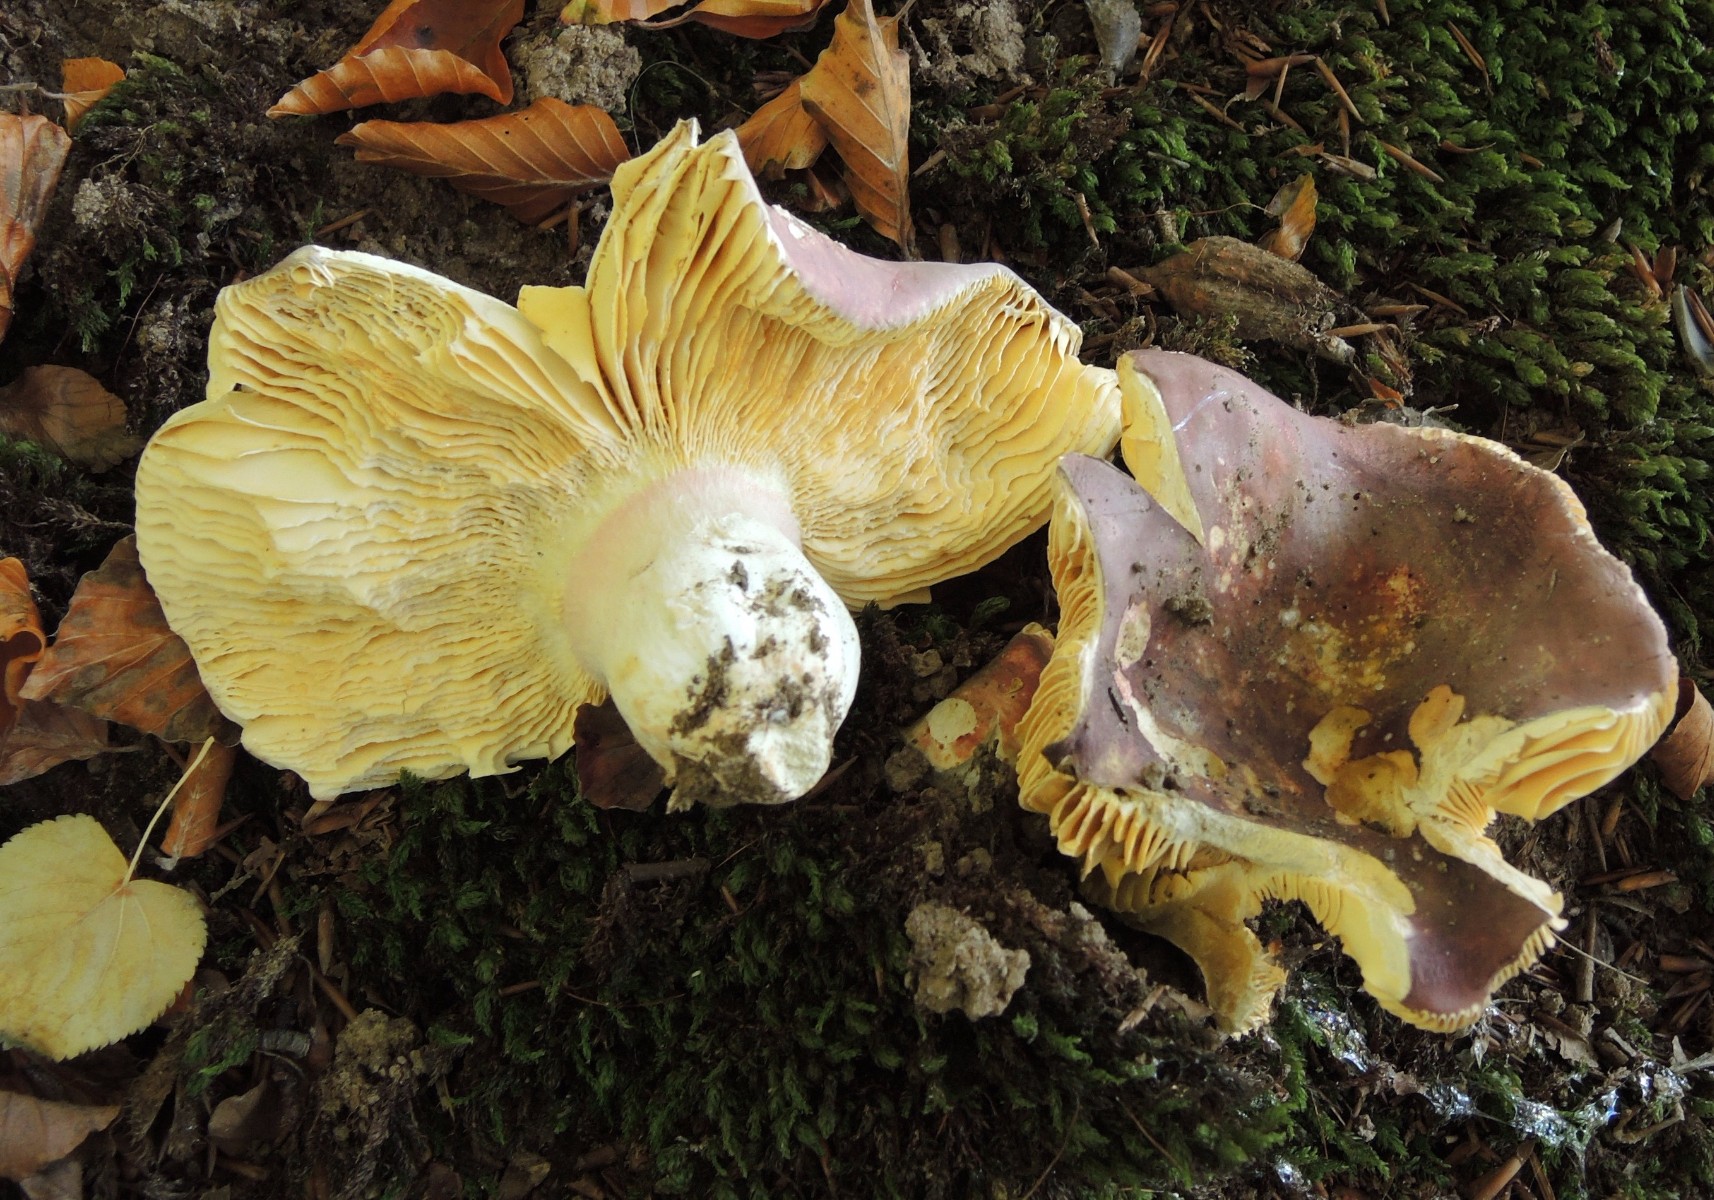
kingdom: Fungi
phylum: Basidiomycota
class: Agaricomycetes
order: Russulales
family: Russulaceae
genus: Russula
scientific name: Russula olivacea
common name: stor skørhat
